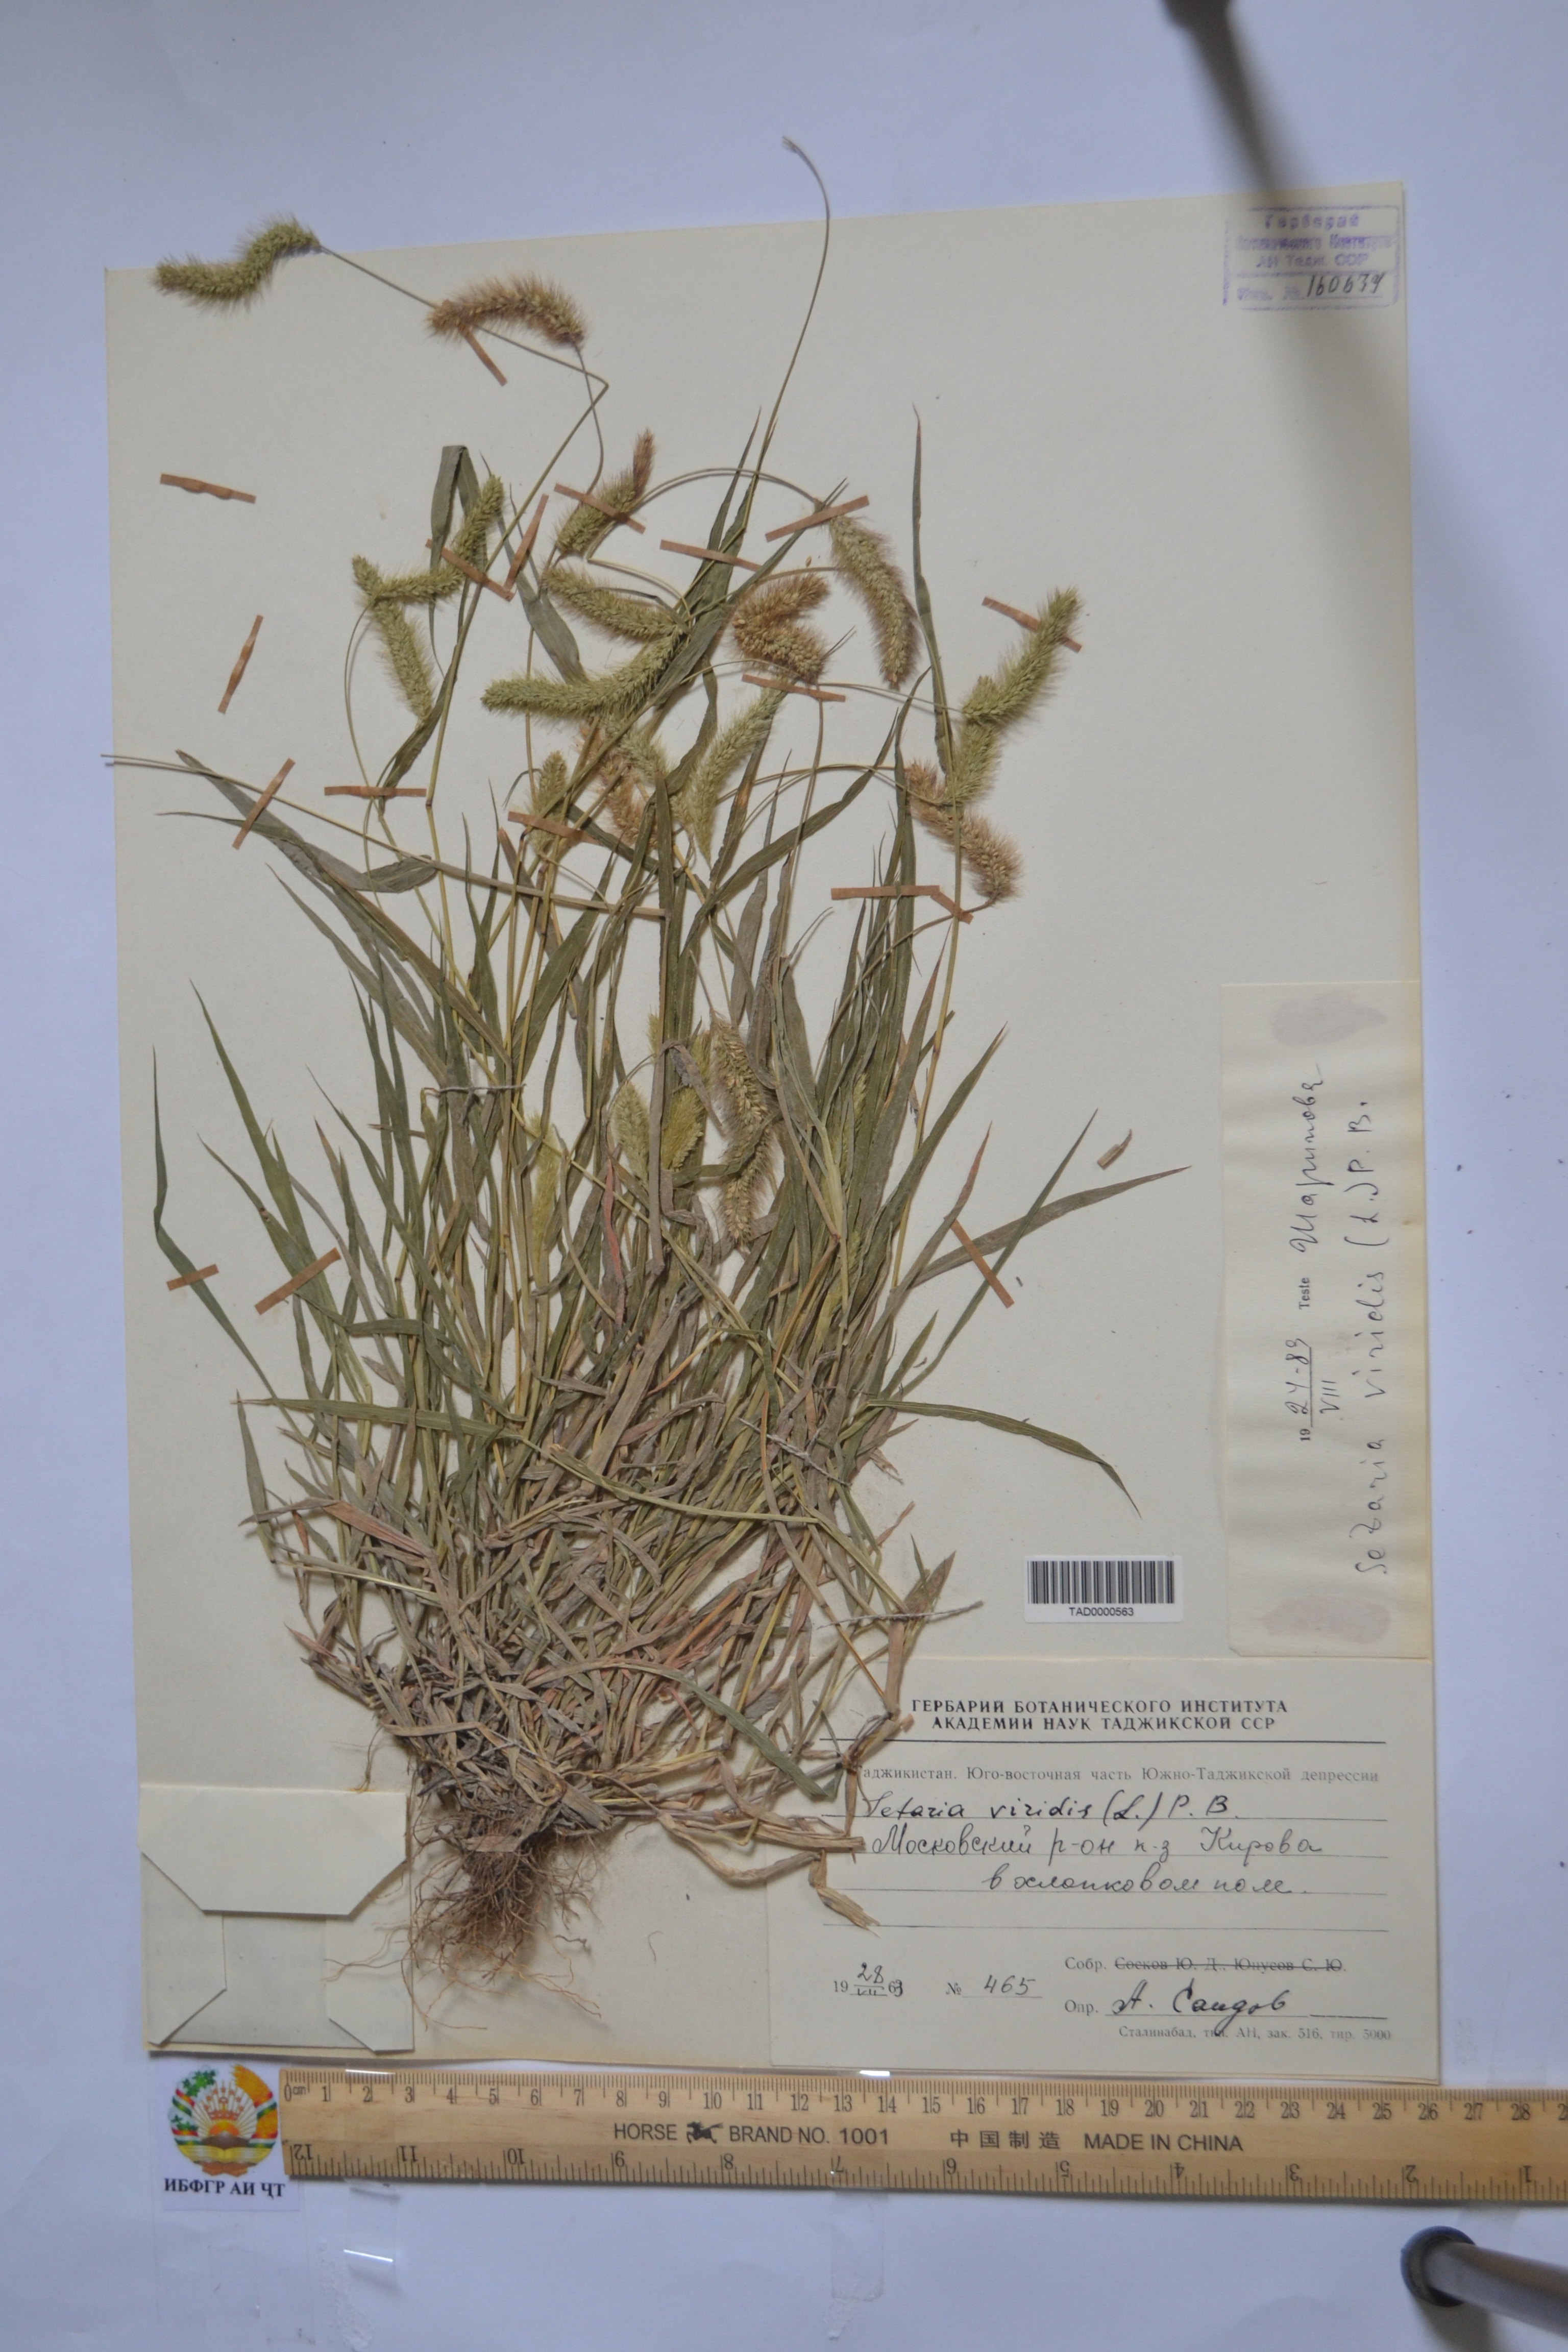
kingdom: Plantae
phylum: Tracheophyta
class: Liliopsida
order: Poales
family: Poaceae
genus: Setaria
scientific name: Setaria viridis
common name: Green bristlegrass
